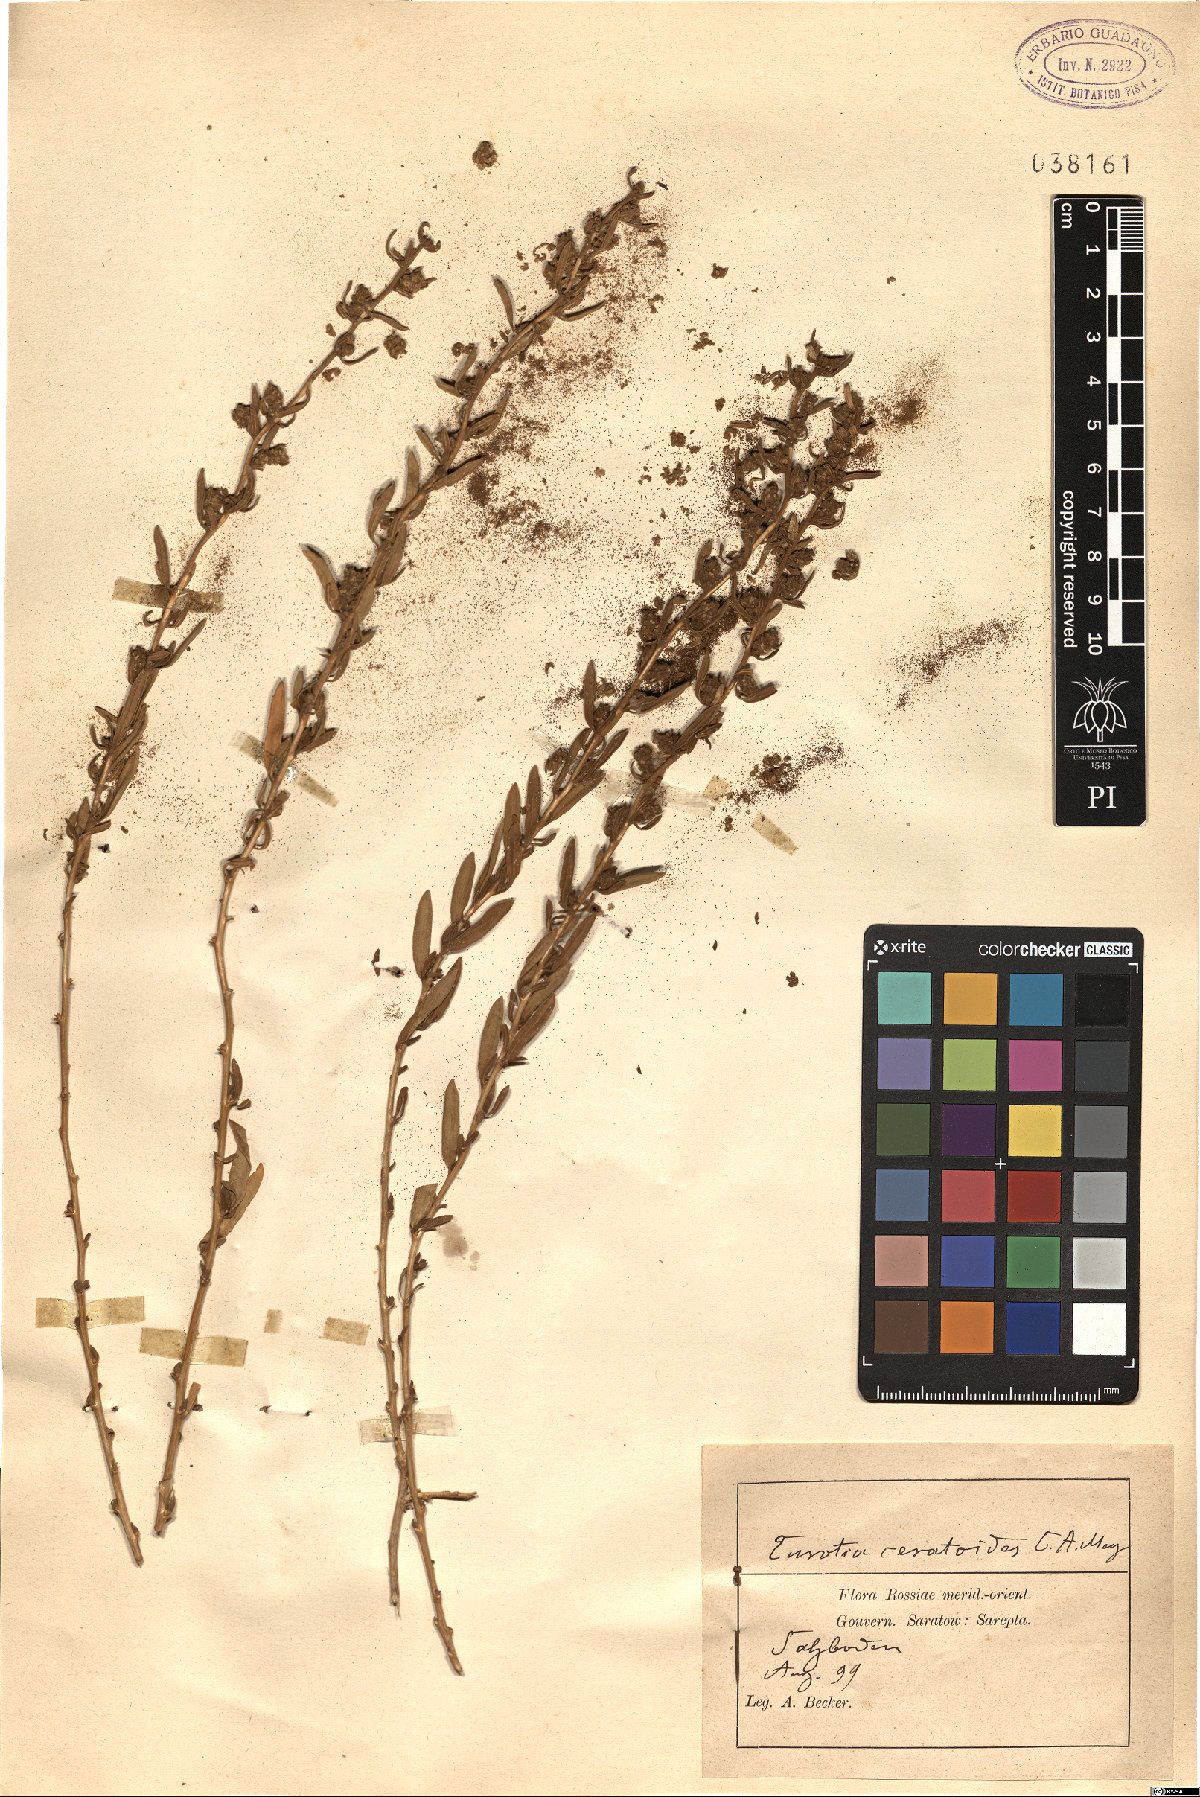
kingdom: Plantae
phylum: Tracheophyta
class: Magnoliopsida
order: Caryophyllales
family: Amaranthaceae
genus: Krascheninnikovia
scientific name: Krascheninnikovia ceratoides
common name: Pamirian winterfat
